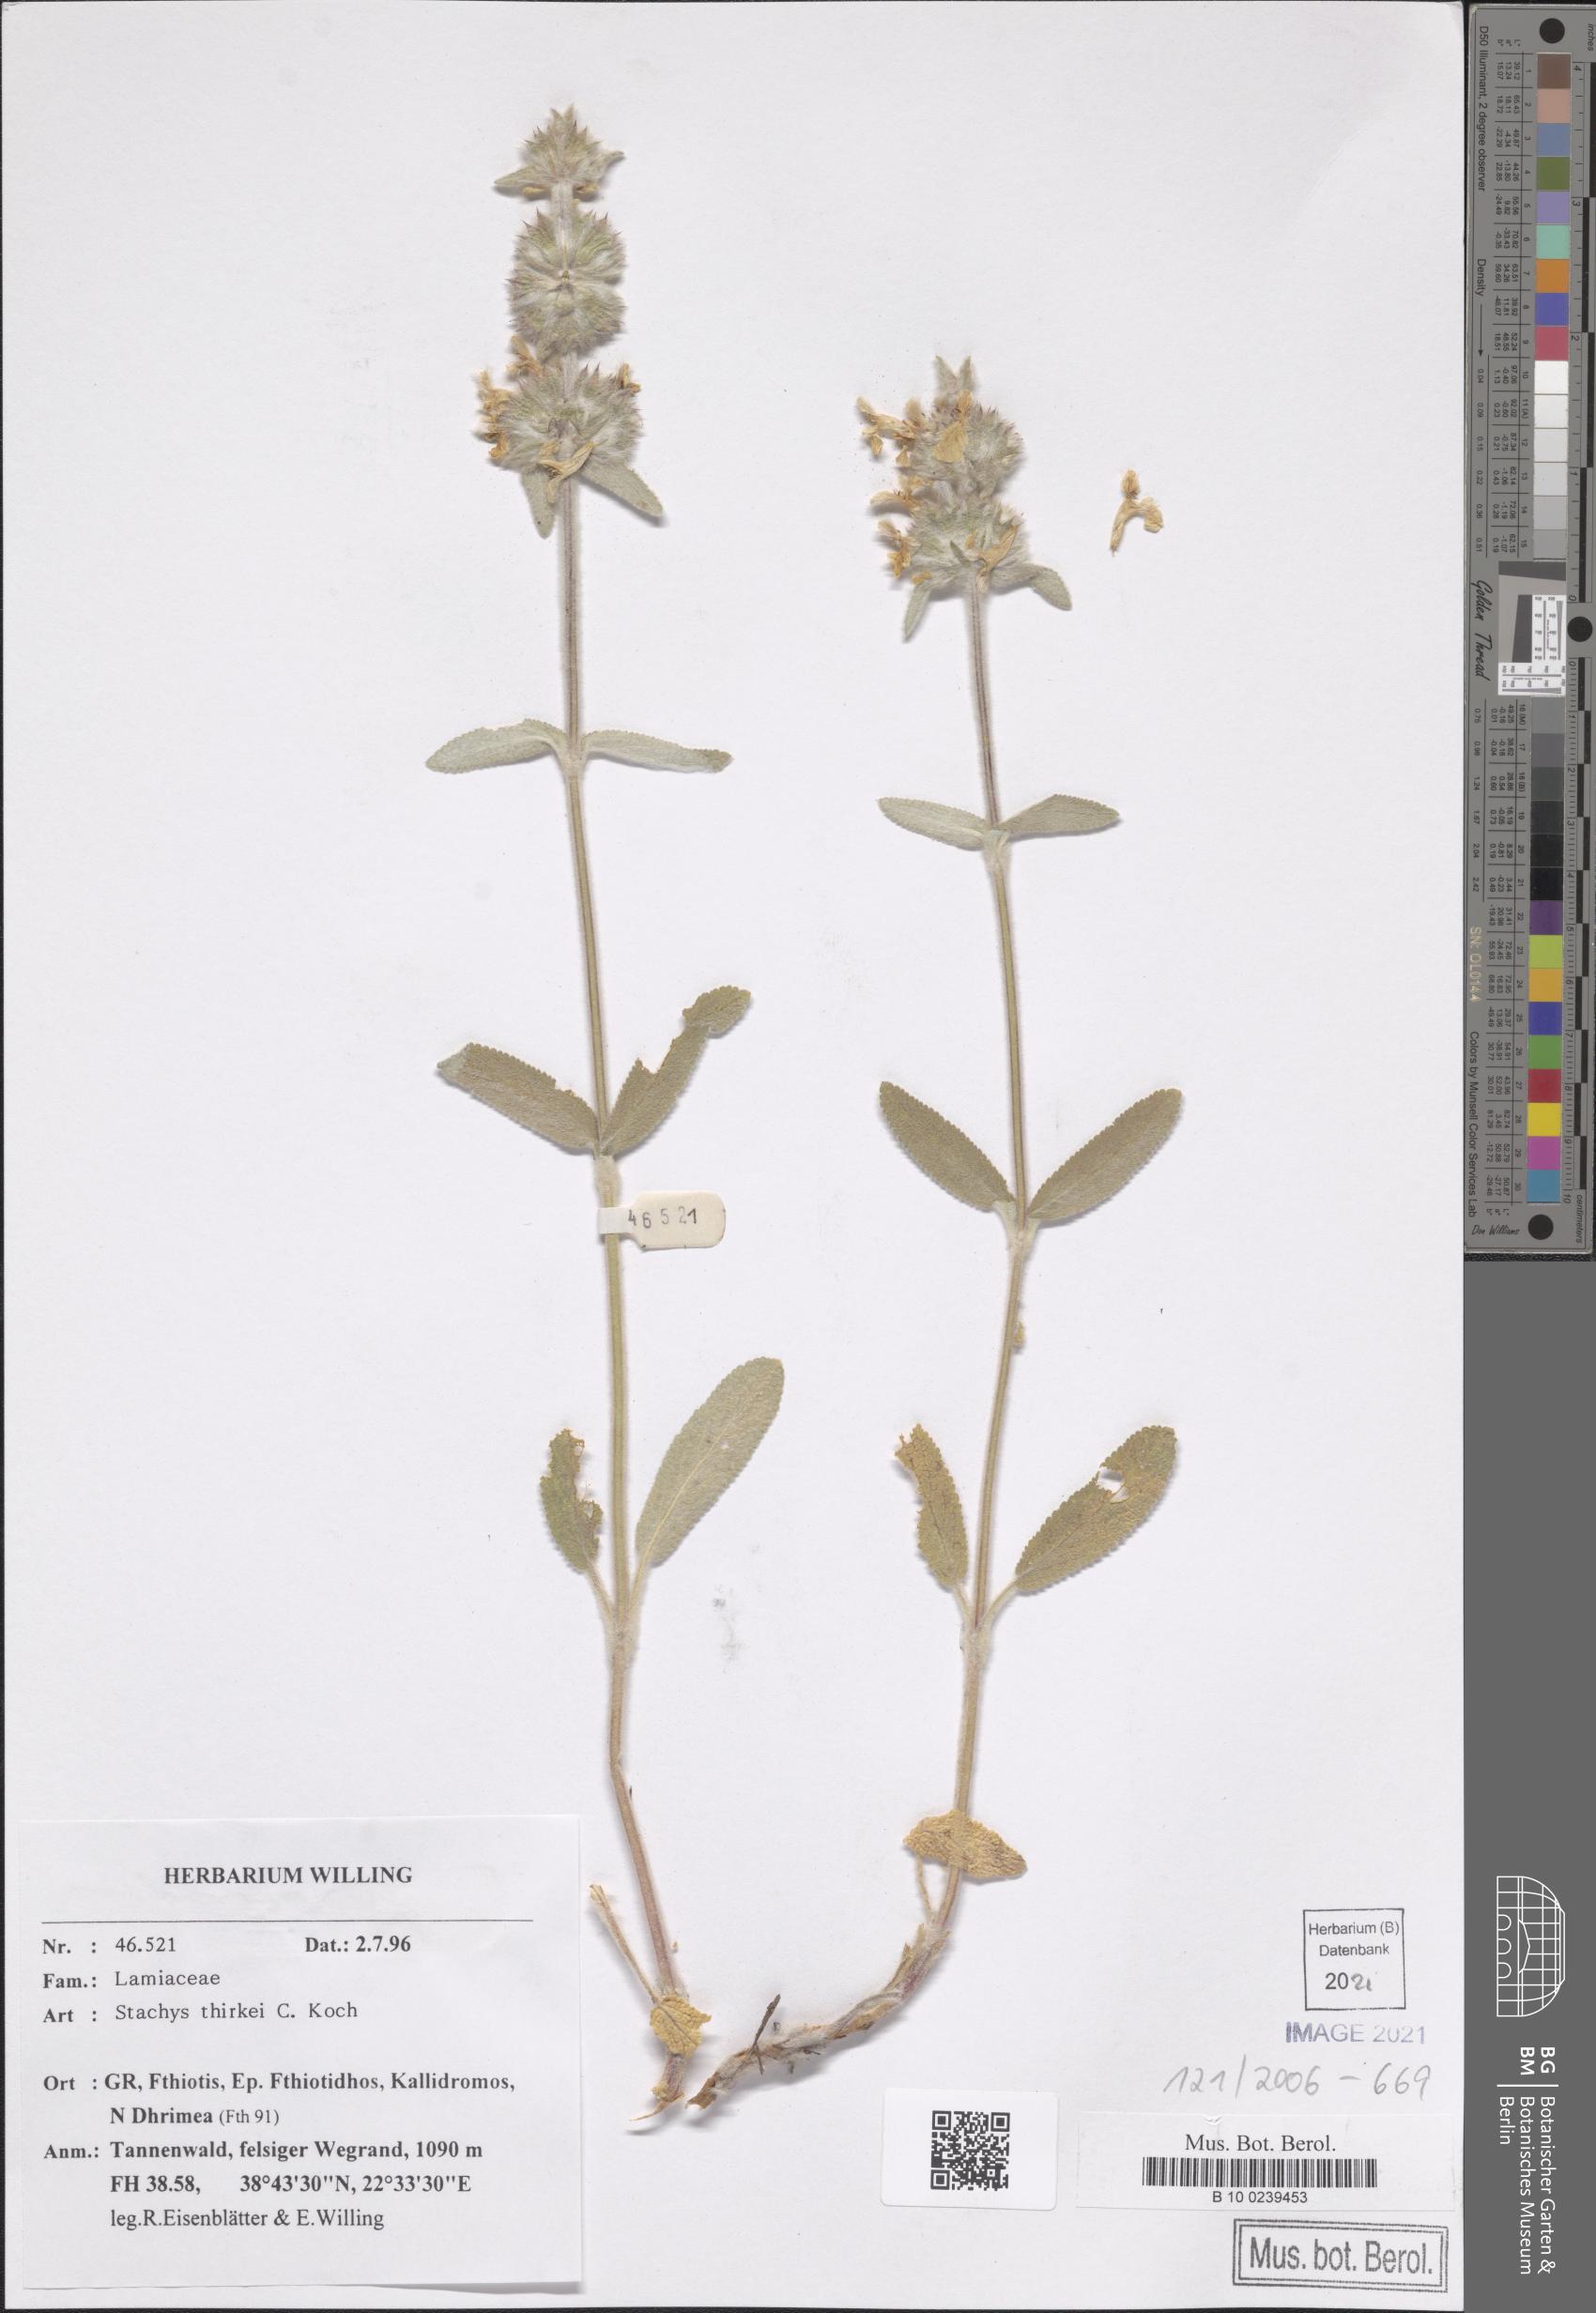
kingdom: Plantae
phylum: Tracheophyta
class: Magnoliopsida
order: Lamiales
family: Lamiaceae
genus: Stachys
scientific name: Stachys thirkei
